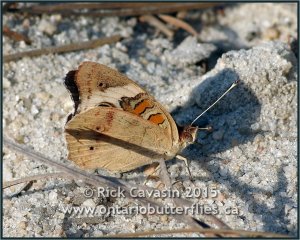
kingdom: Animalia
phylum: Arthropoda
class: Insecta
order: Lepidoptera
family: Nymphalidae
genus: Junonia
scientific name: Junonia coenia
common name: Common Buckeye
